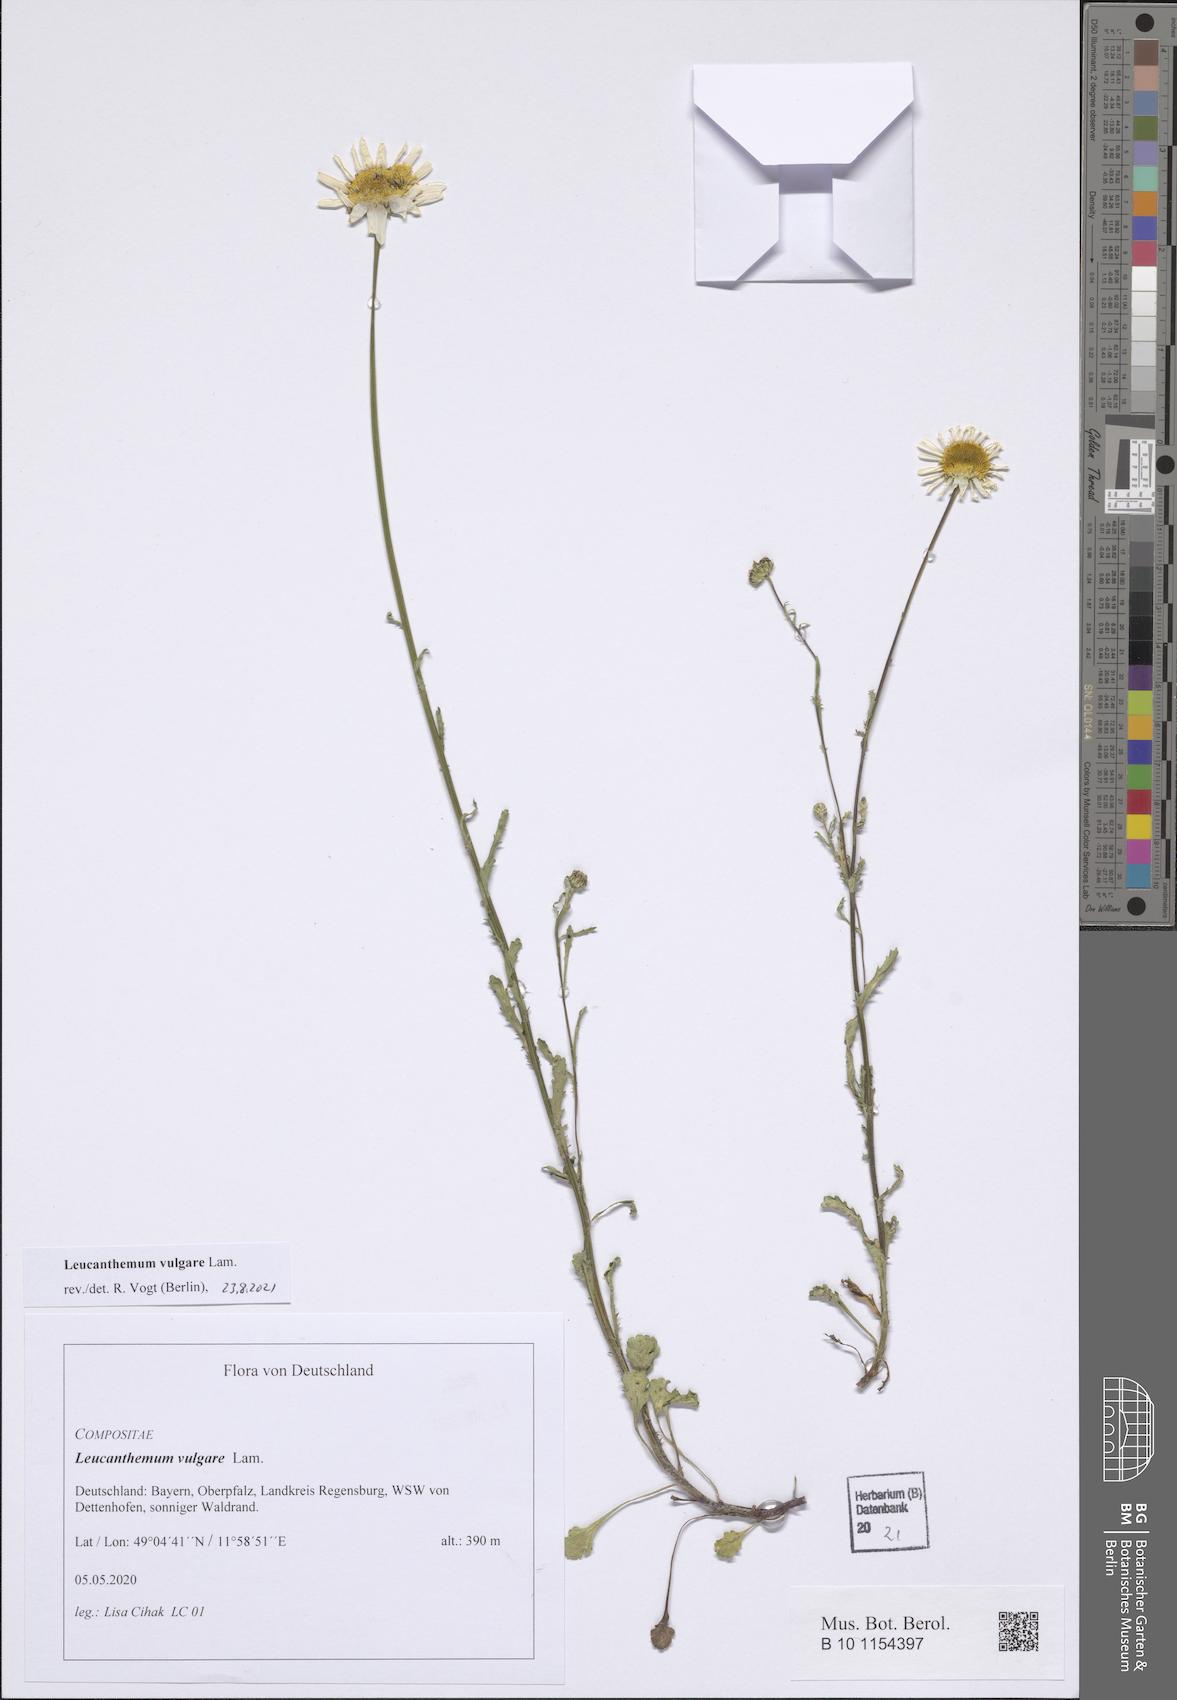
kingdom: Plantae
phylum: Tracheophyta
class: Magnoliopsida
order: Asterales
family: Asteraceae
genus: Leucanthemum
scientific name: Leucanthemum vulgare
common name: Oxeye daisy
